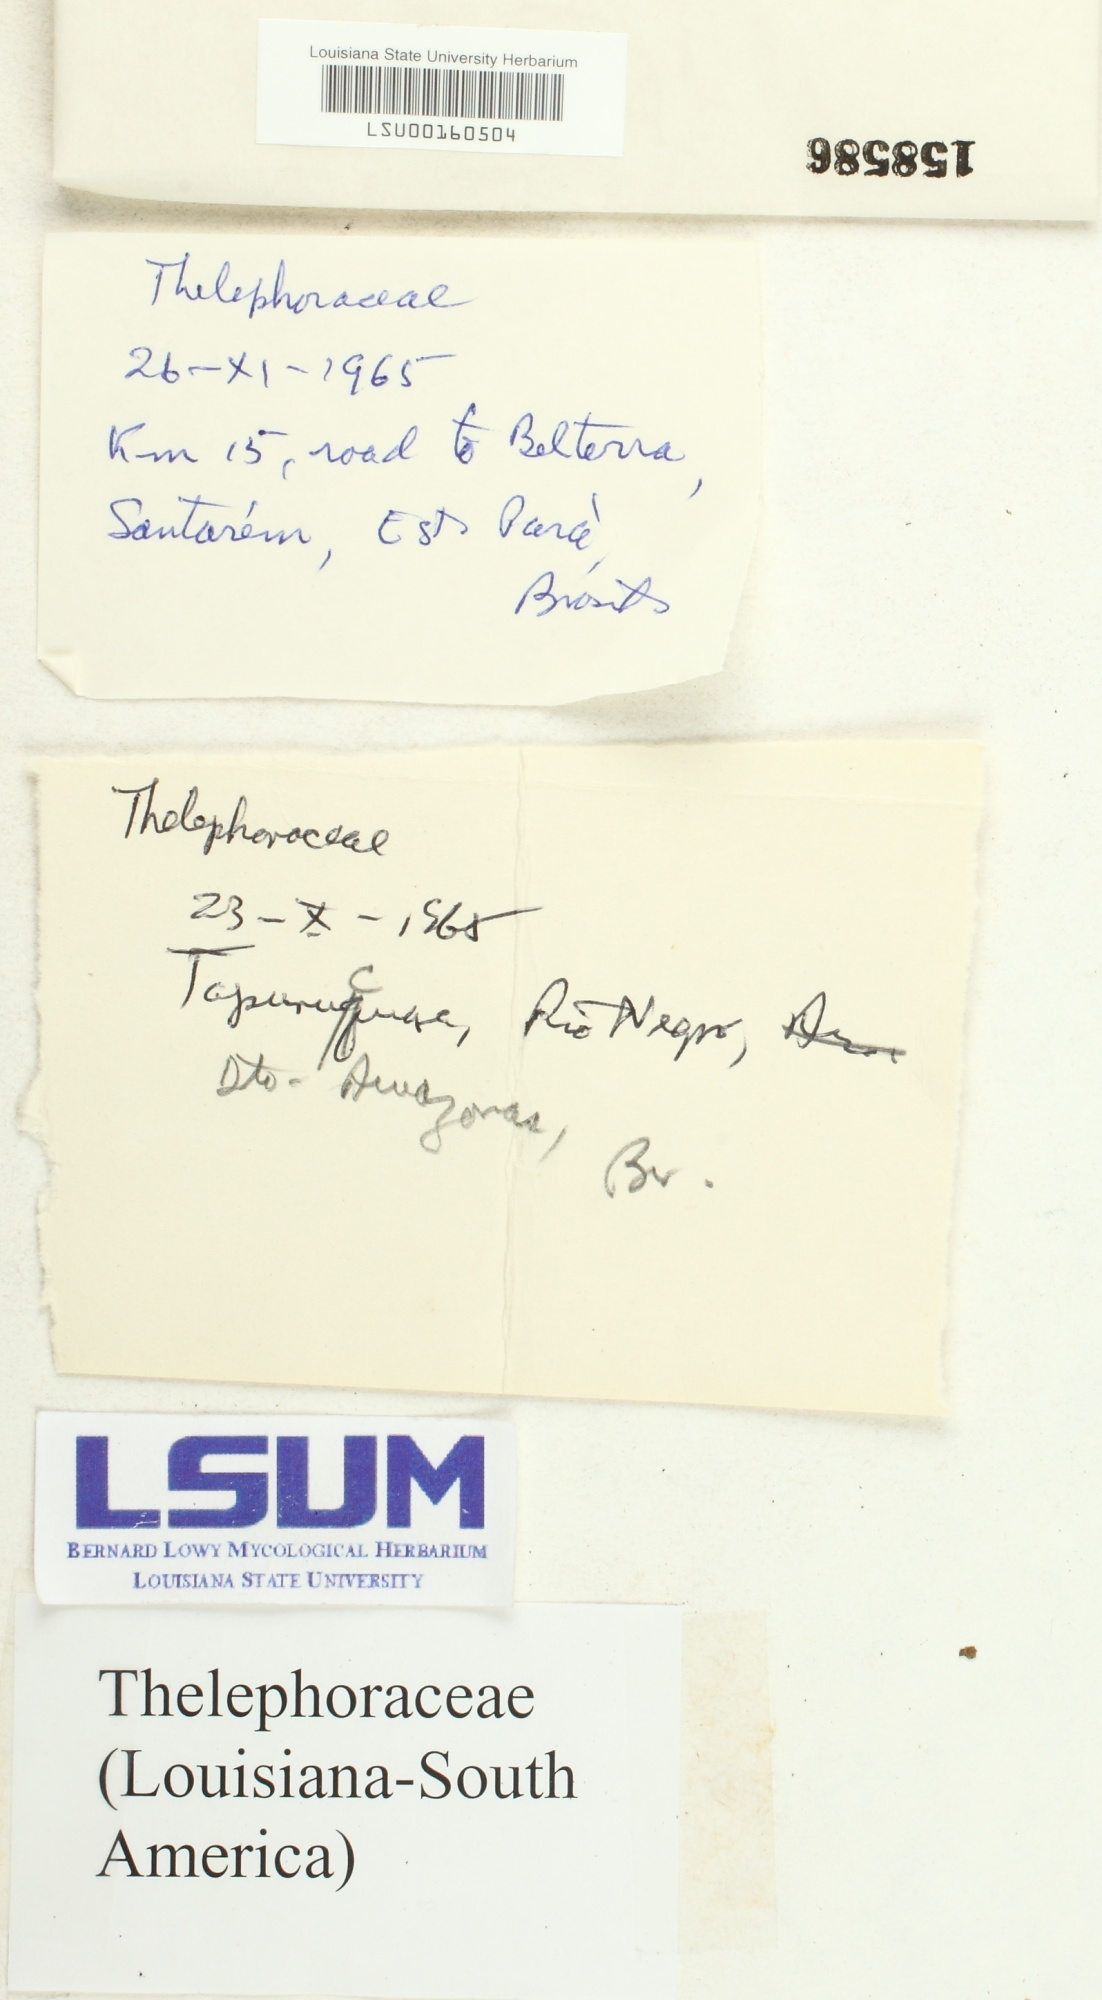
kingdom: Fungi
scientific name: Fungi
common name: Fungi
